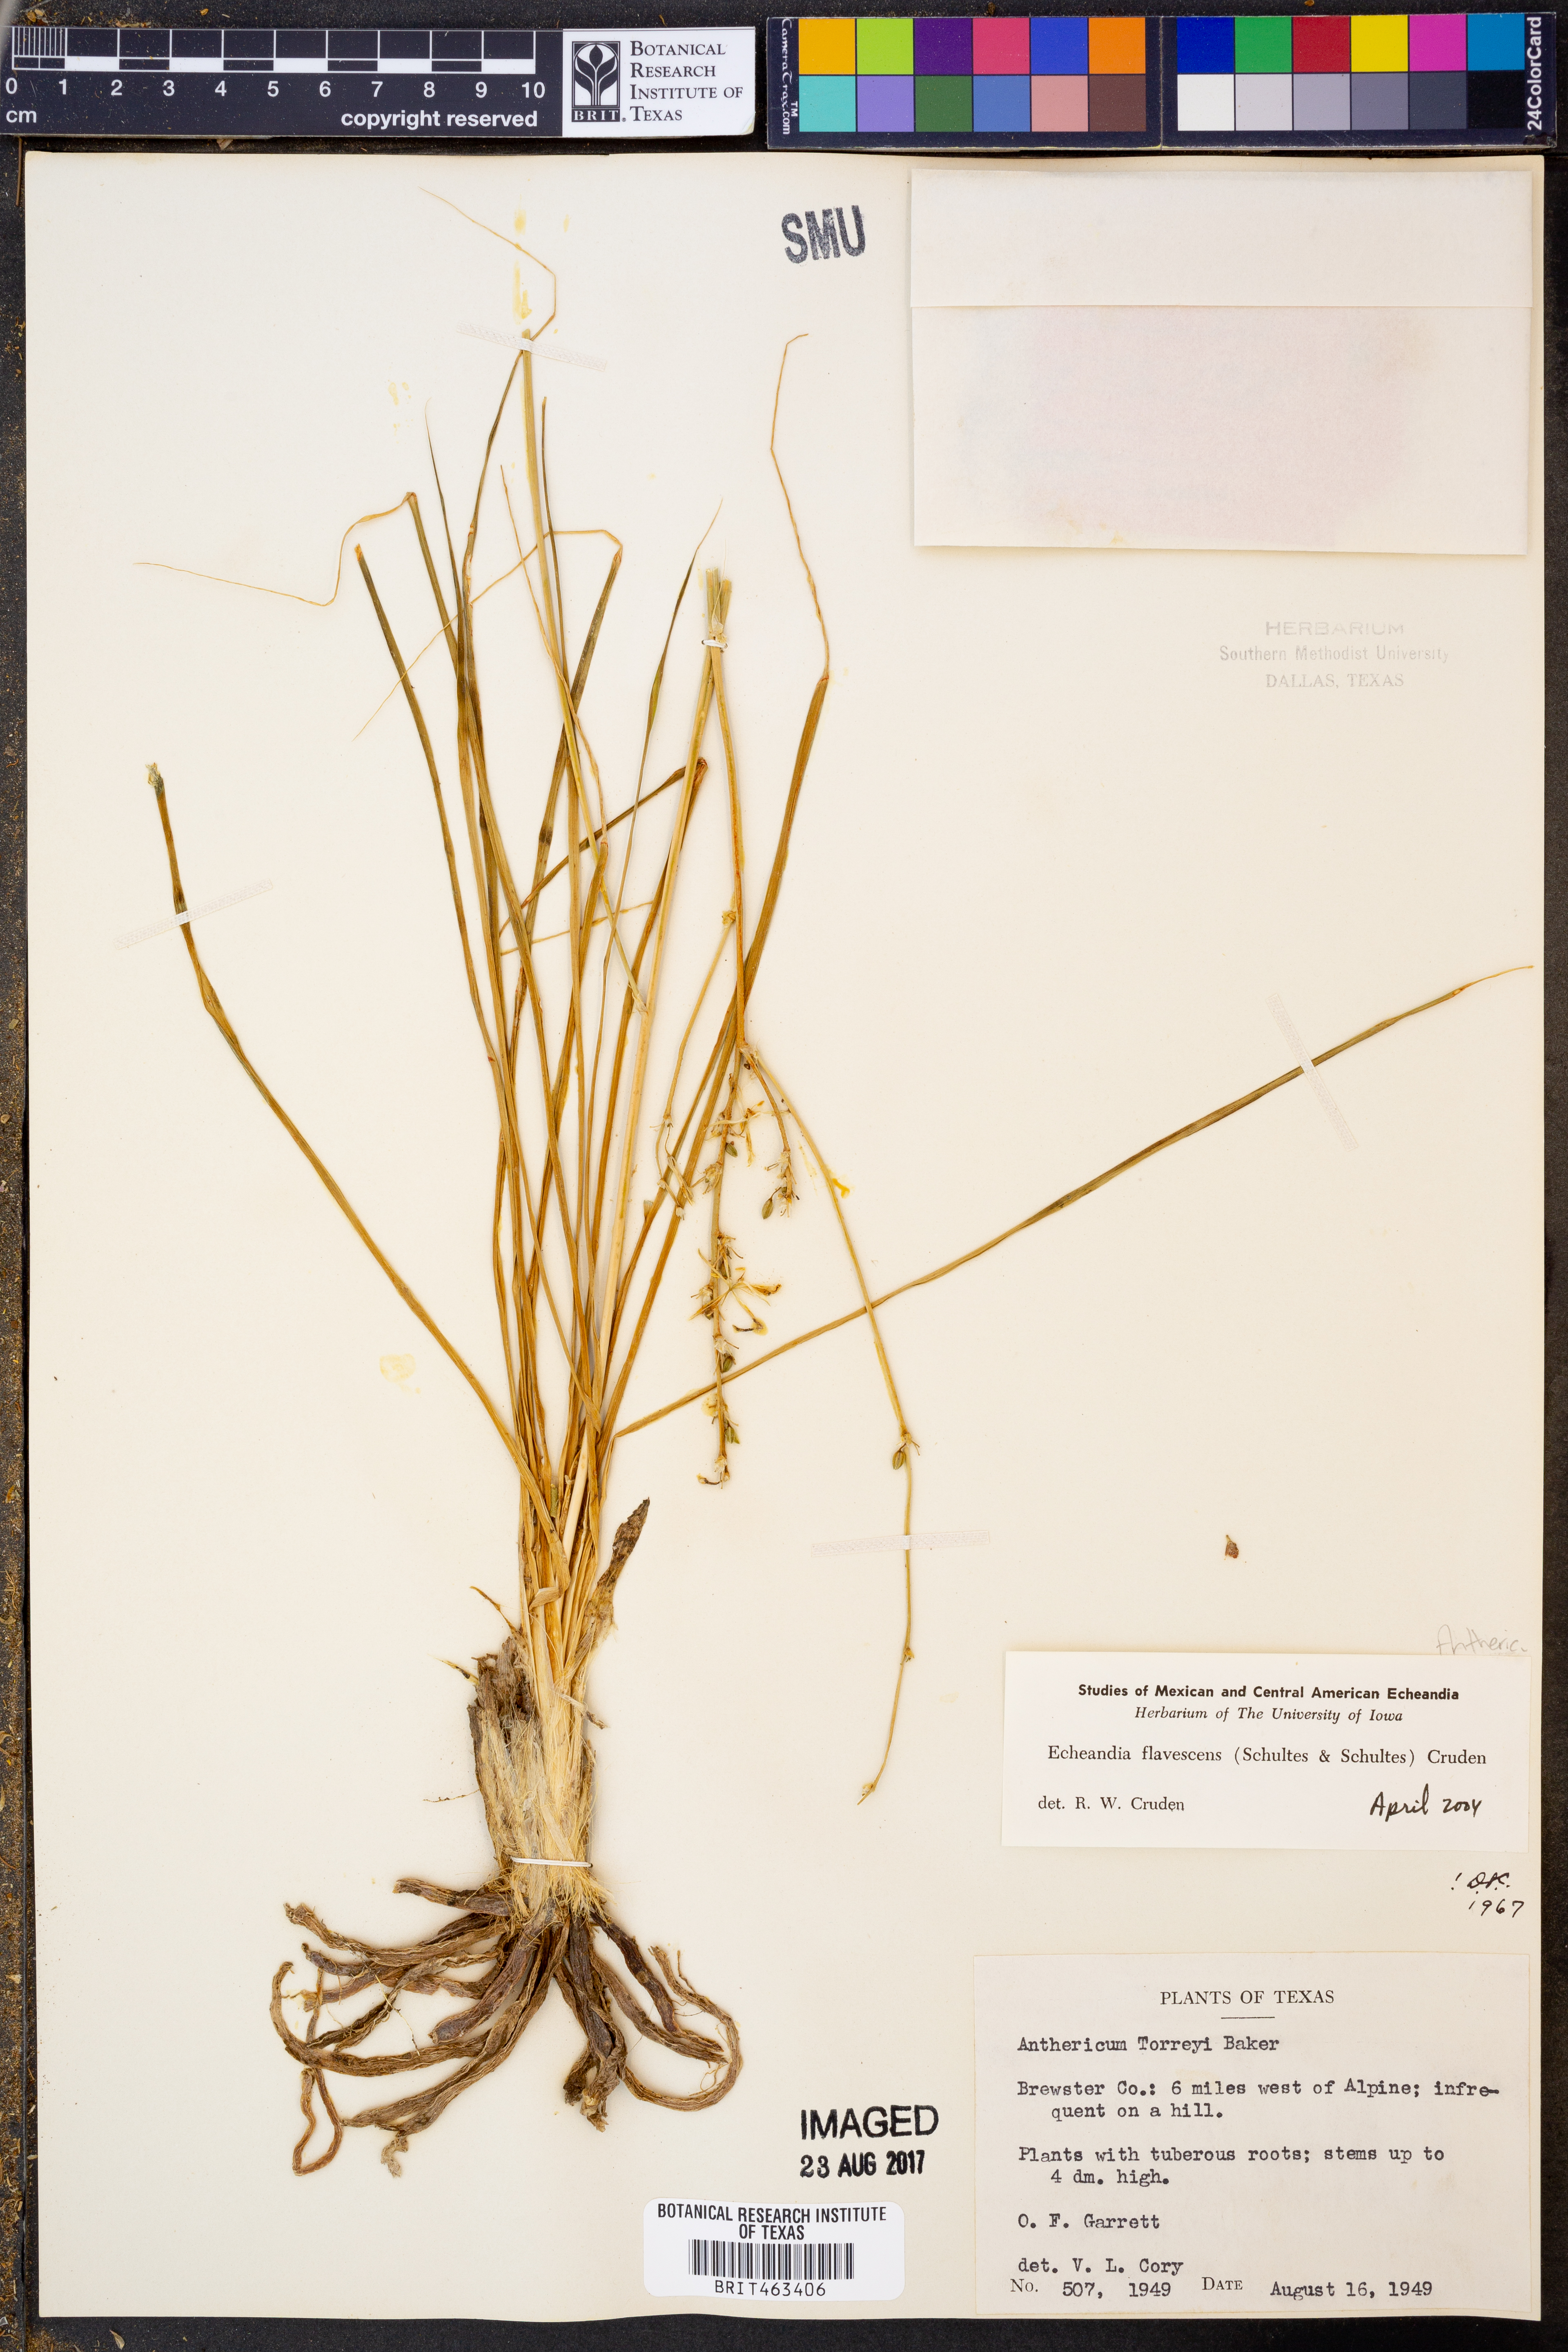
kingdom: Plantae
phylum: Tracheophyta
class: Liliopsida
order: Asparagales
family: Asparagaceae
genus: Echeandia
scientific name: Echeandia flavescens
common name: Amberlily
